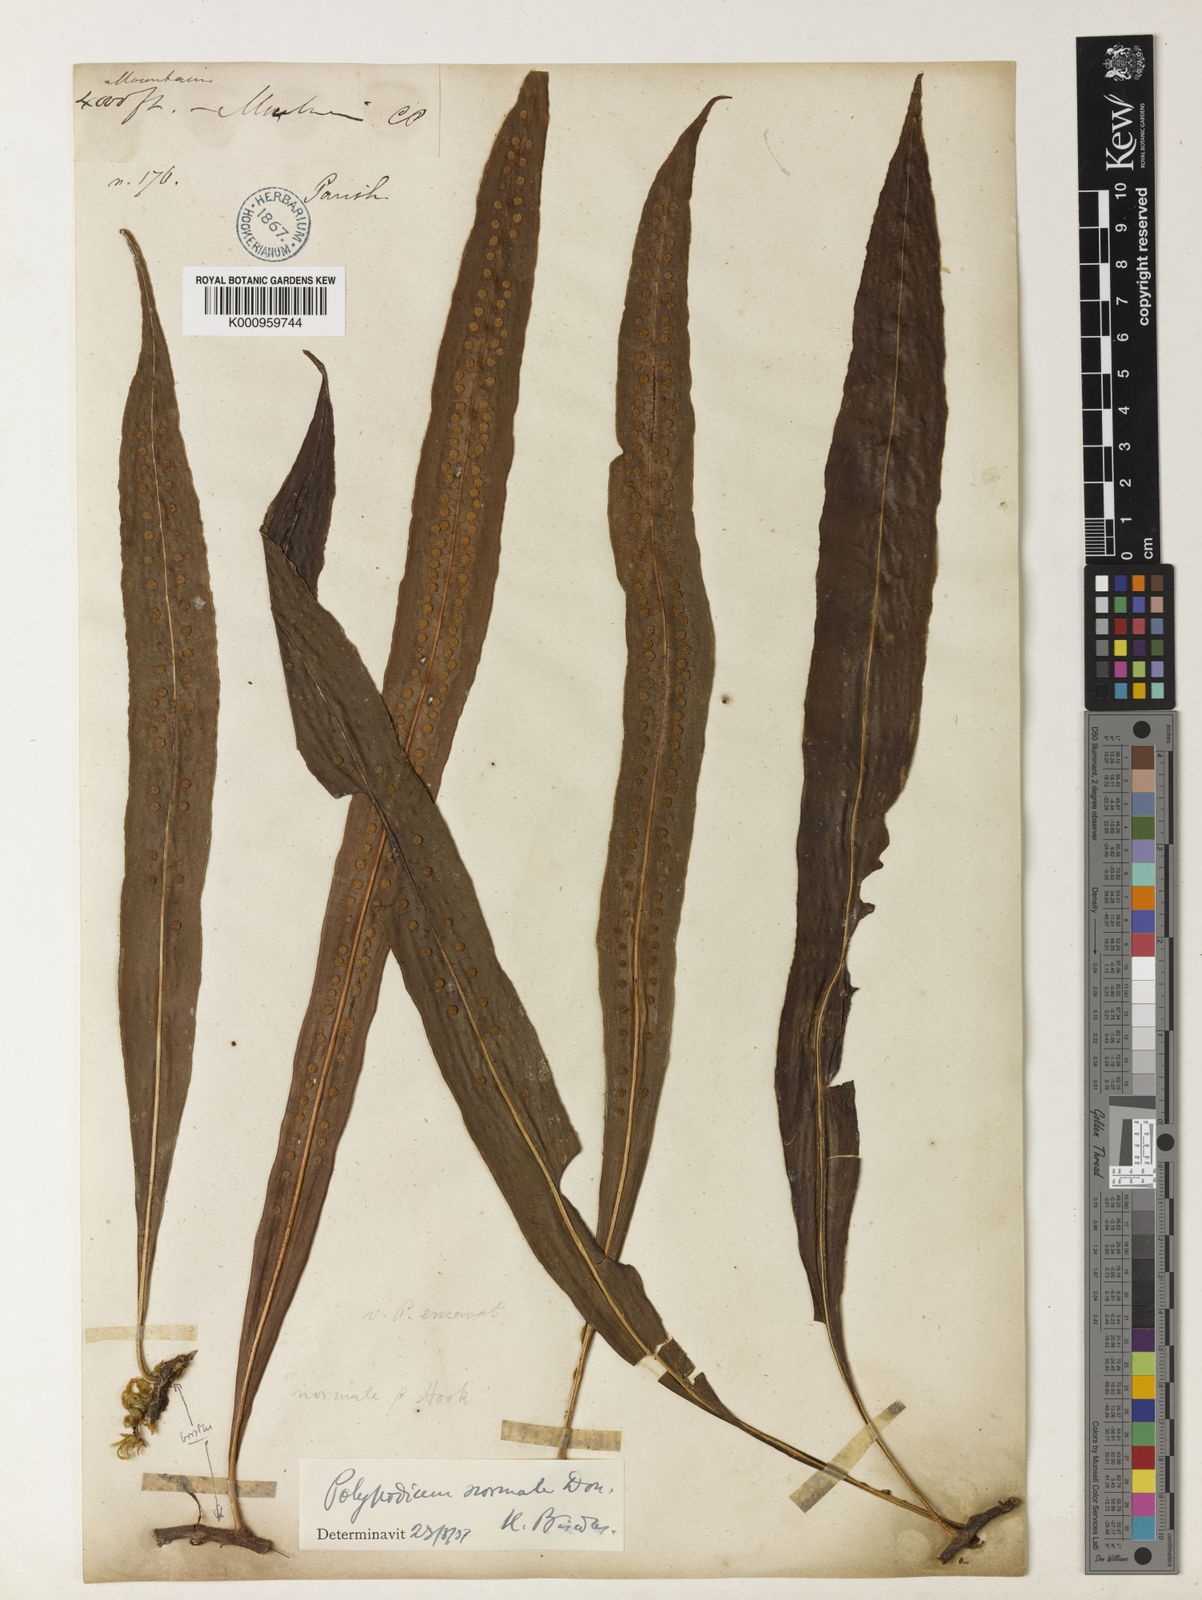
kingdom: Plantae
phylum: Tracheophyta
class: Polypodiopsida
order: Polypodiales
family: Polypodiaceae
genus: Lepisorus
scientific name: Lepisorus normalis
